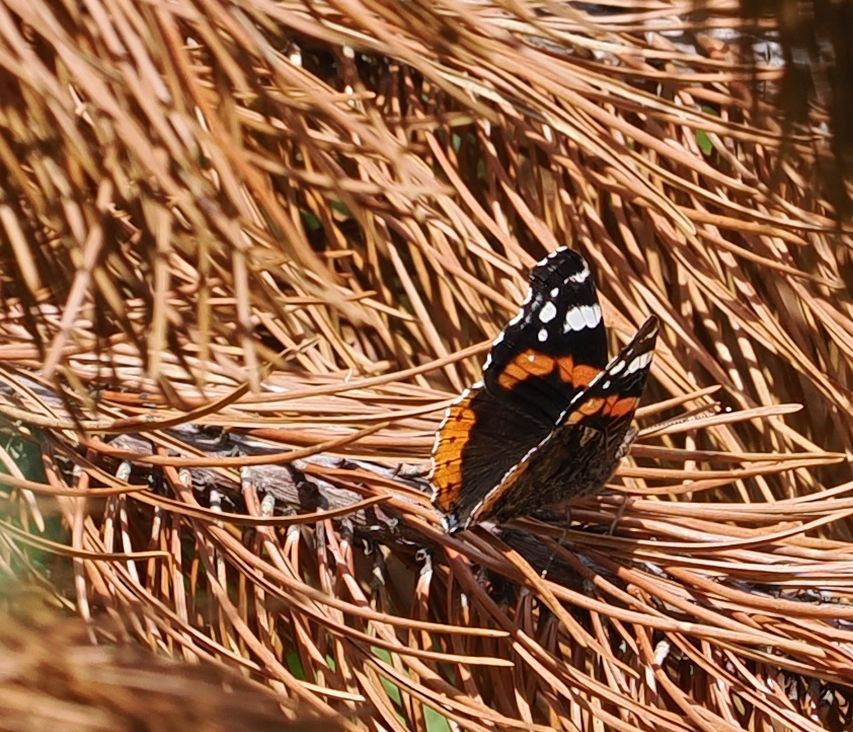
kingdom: Animalia
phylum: Arthropoda
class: Insecta
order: Lepidoptera
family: Nymphalidae
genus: Vanessa
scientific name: Vanessa atalanta
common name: Admiral
